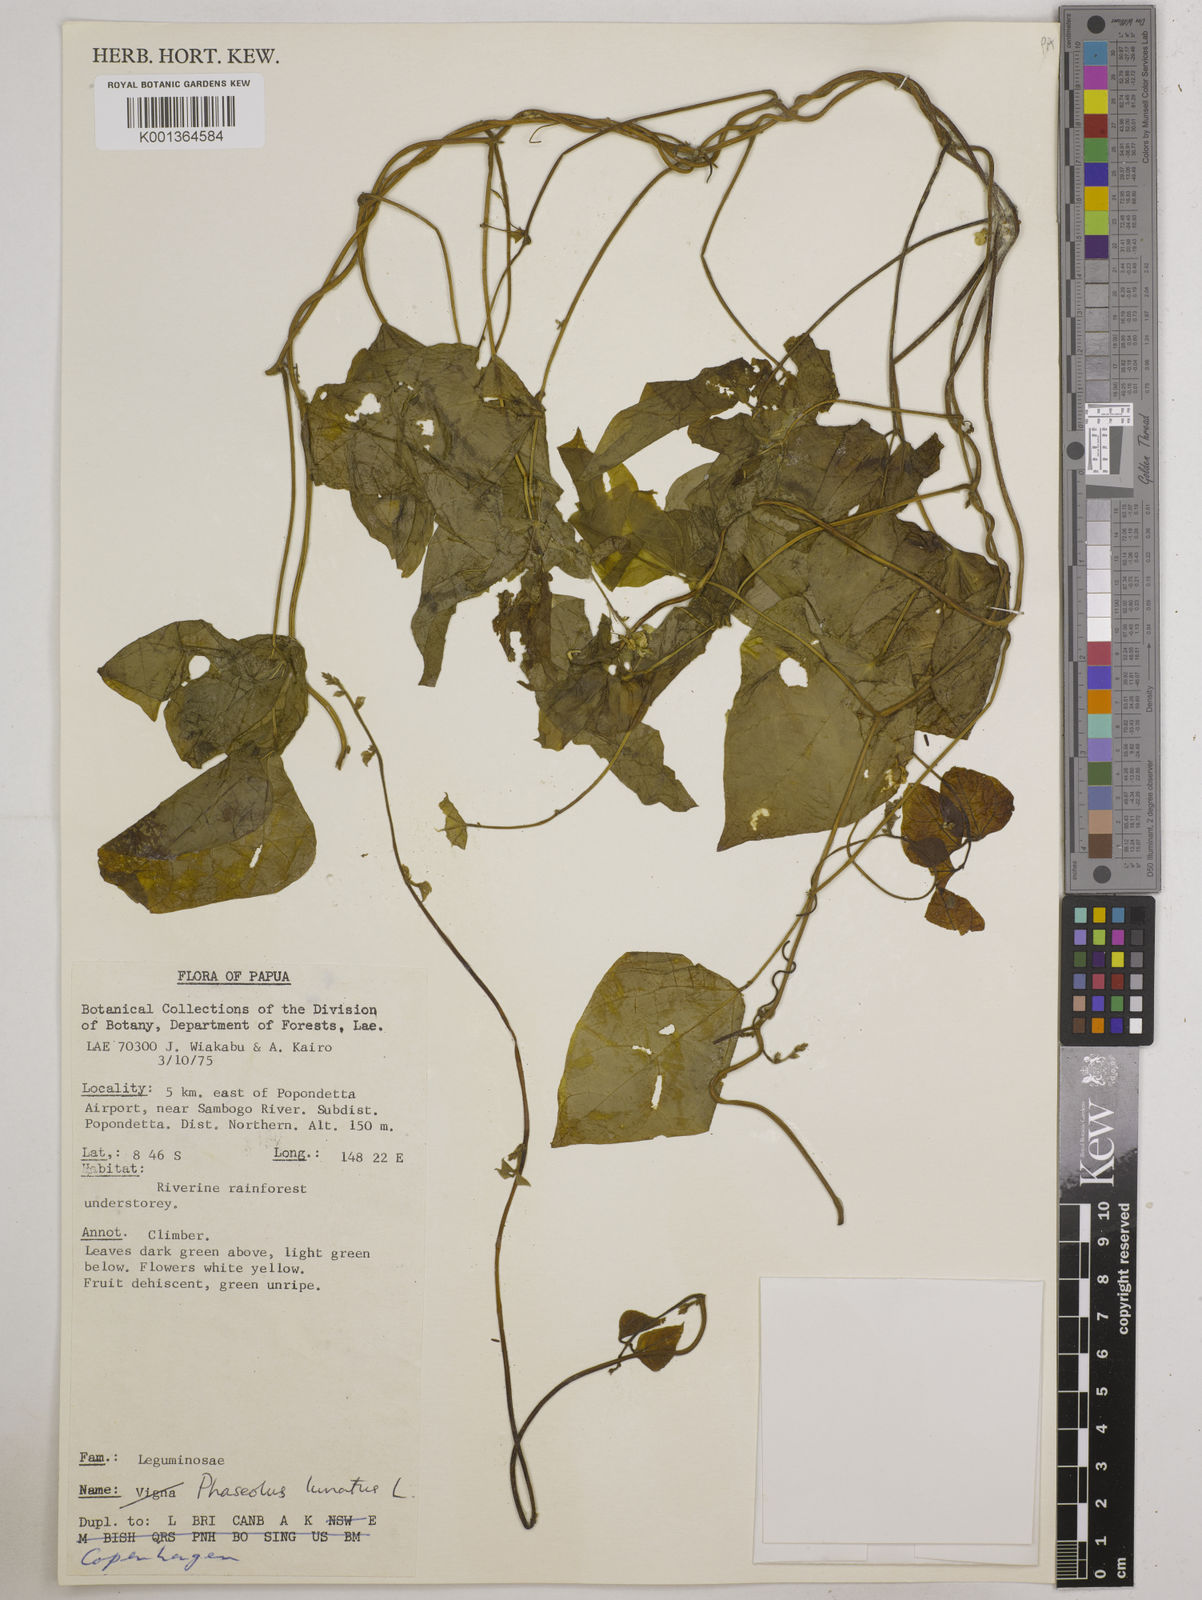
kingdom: Plantae
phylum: Tracheophyta
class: Magnoliopsida
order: Fabales
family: Fabaceae
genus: Phaseolus
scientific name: Phaseolus lunatus
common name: Sieva bean
